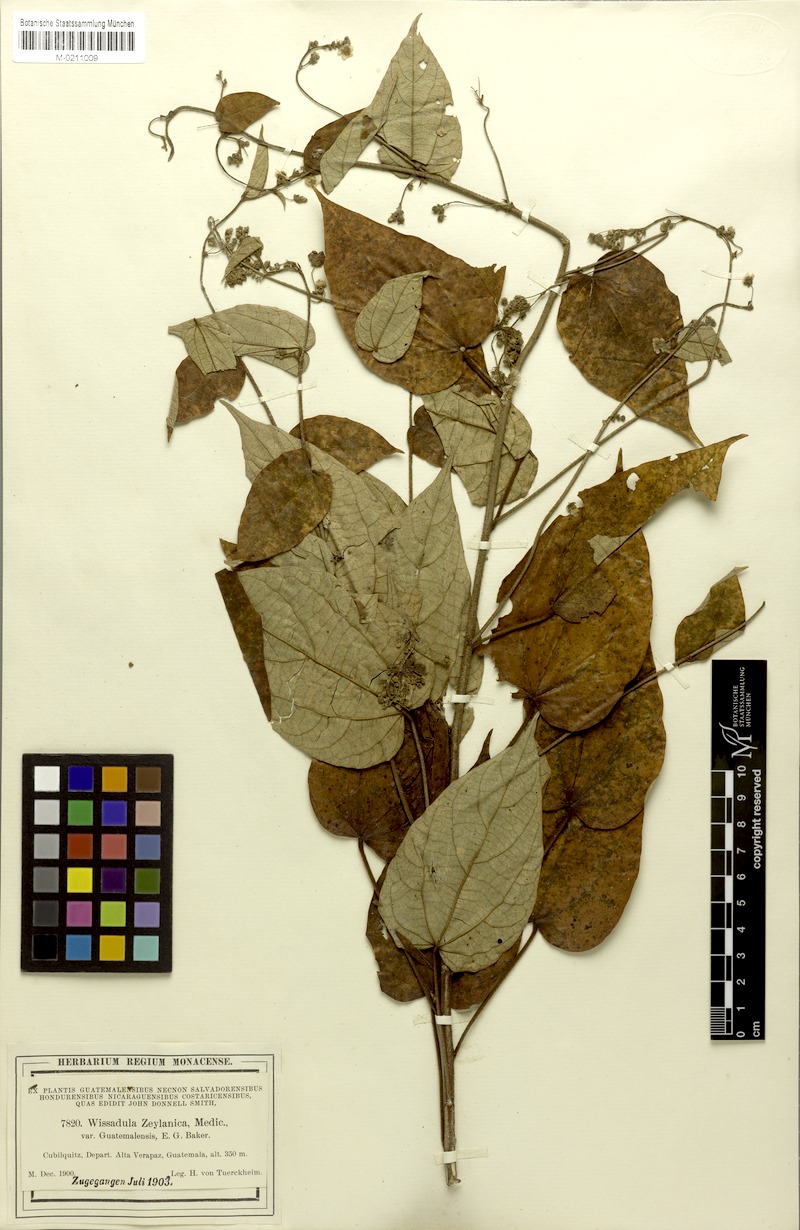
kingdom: Plantae
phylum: Tracheophyta
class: Magnoliopsida
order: Malvales
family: Malvaceae
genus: Wissadula
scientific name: Wissadula excelsior
